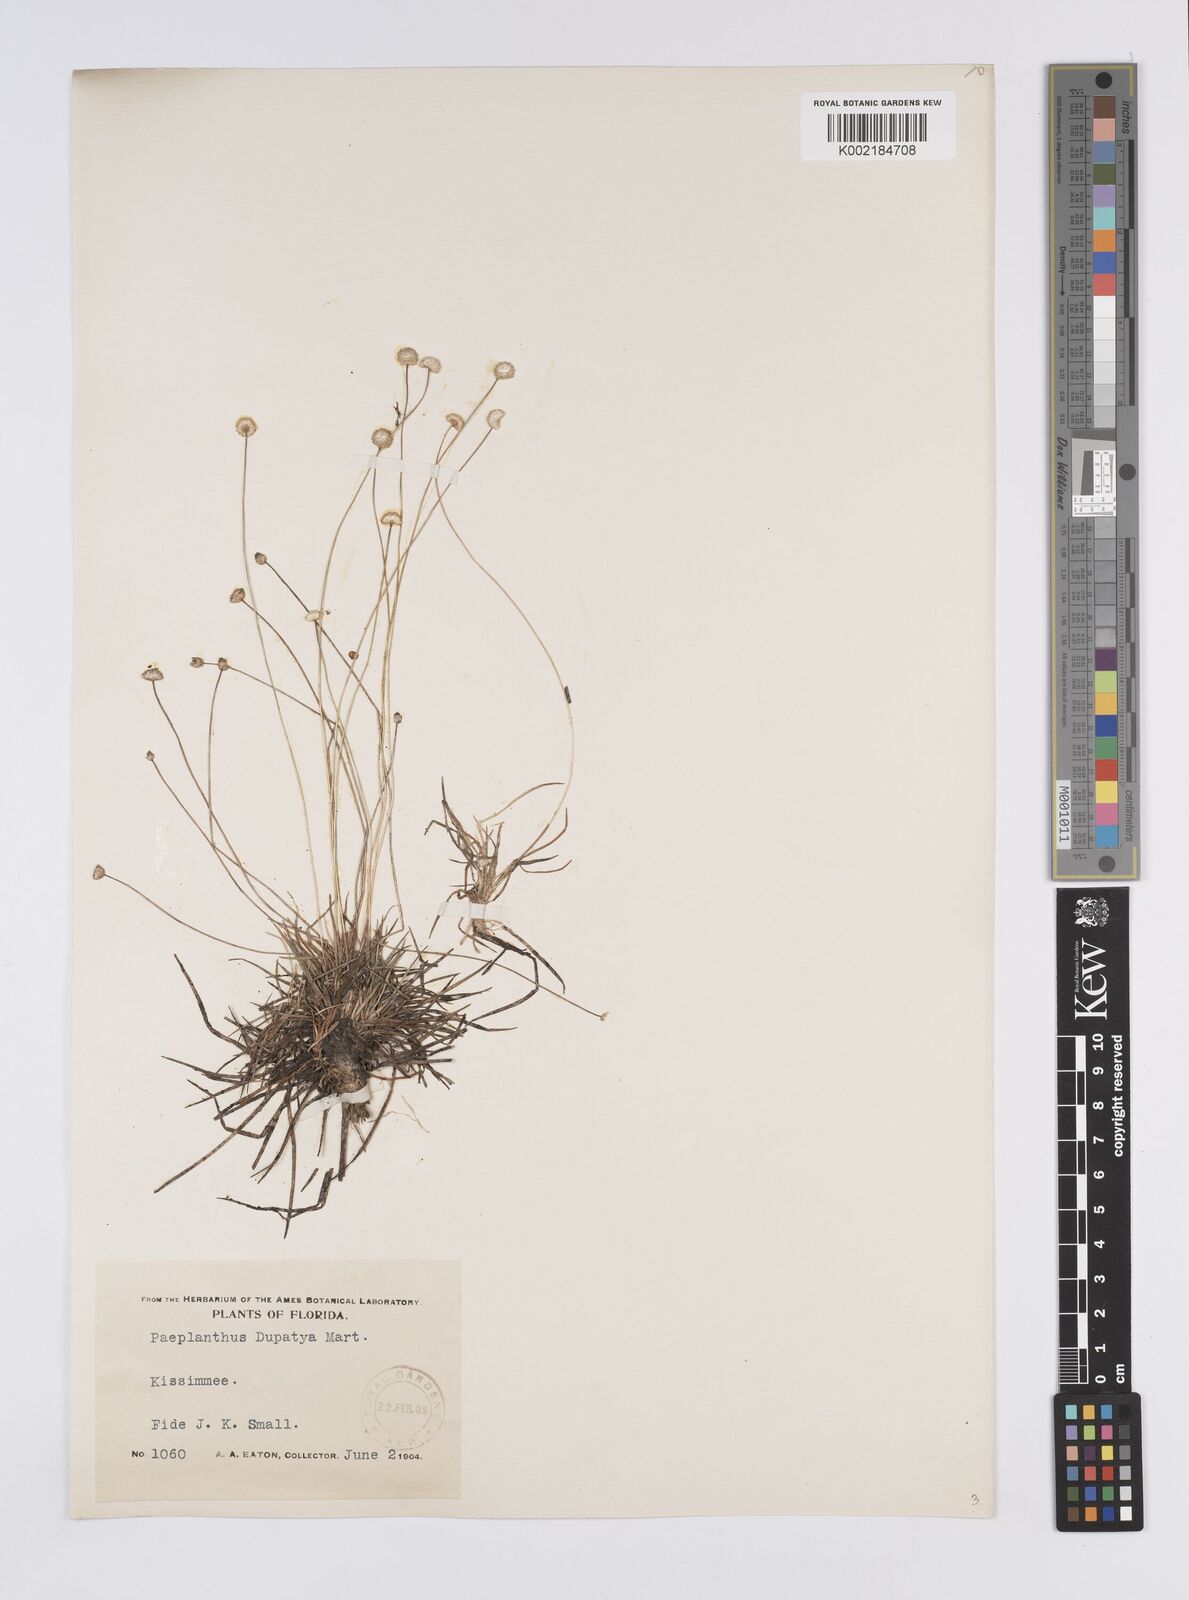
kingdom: Plantae
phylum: Tracheophyta
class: Liliopsida
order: Poales
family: Eriocaulaceae
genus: Eriocaulon
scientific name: Eriocaulon
